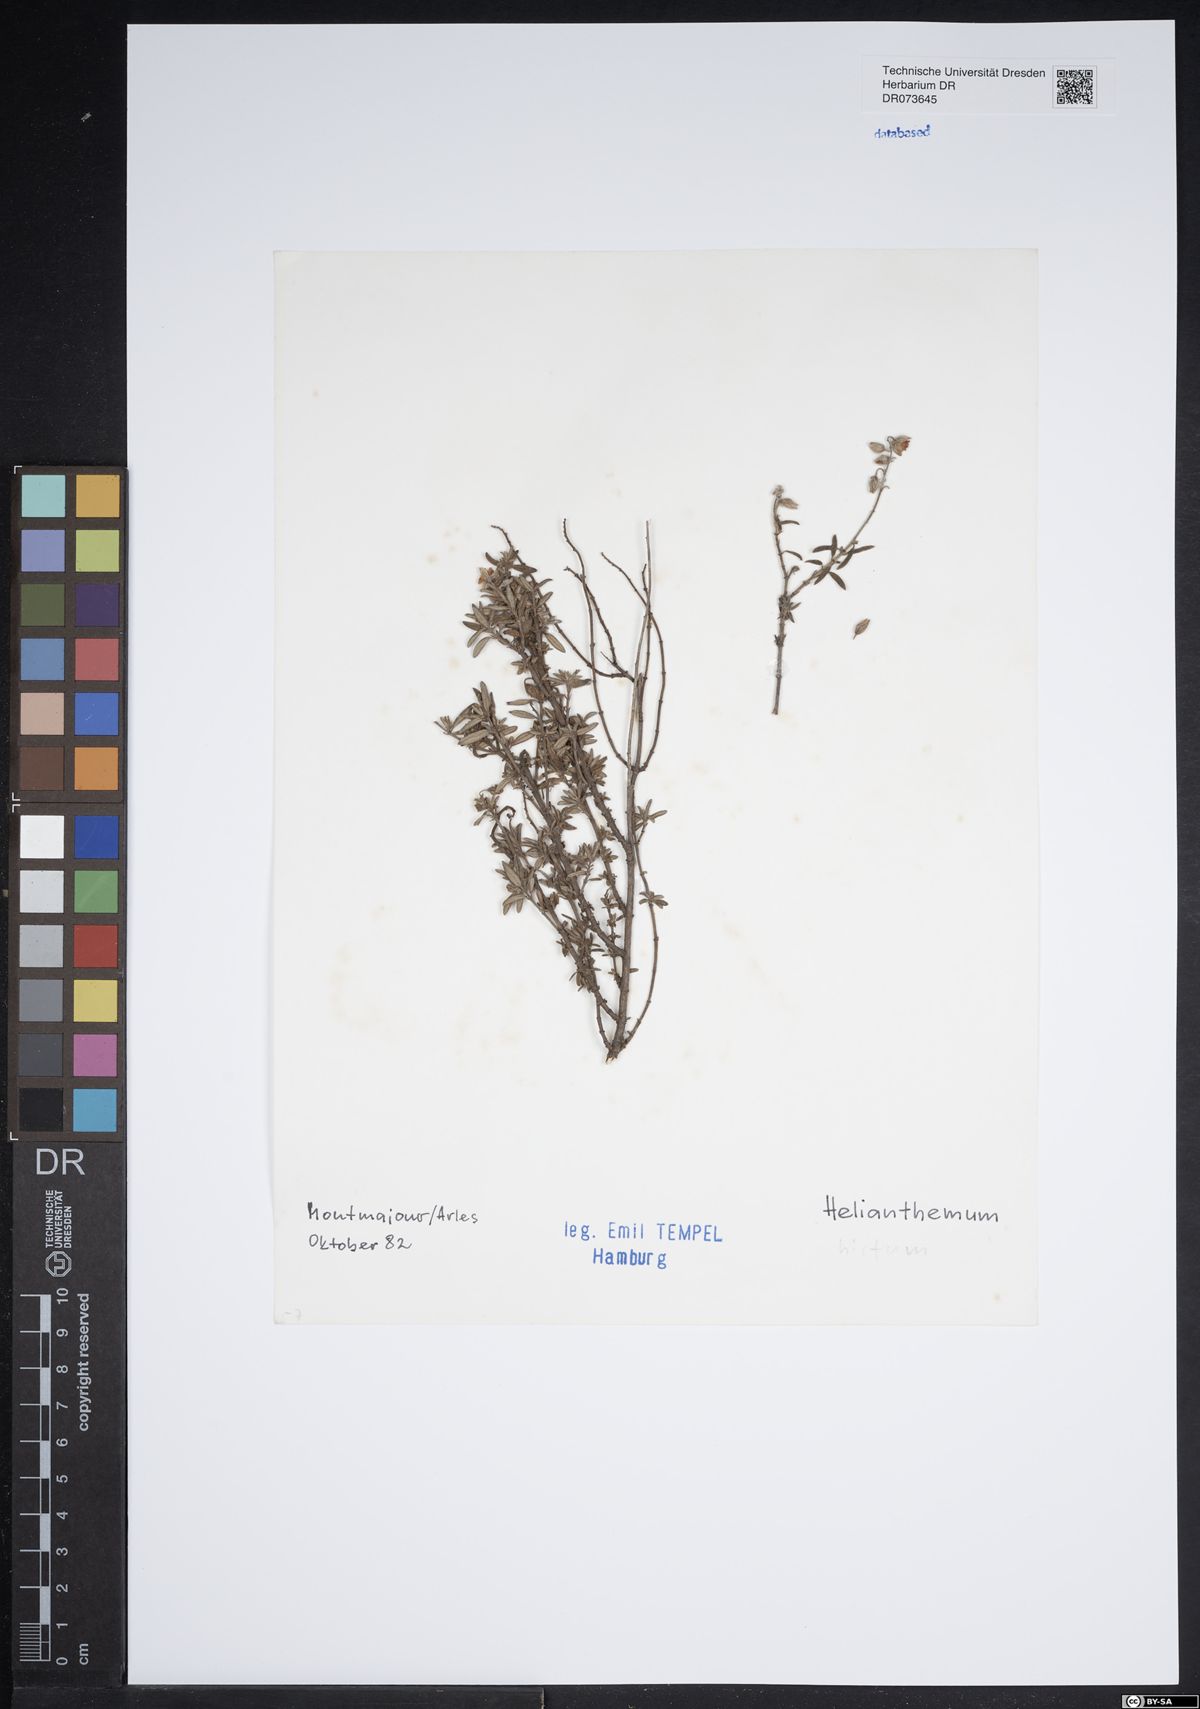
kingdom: Plantae
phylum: Tracheophyta
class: Magnoliopsida
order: Malvales
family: Cistaceae
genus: Helianthemum
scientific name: Helianthemum hirtum
